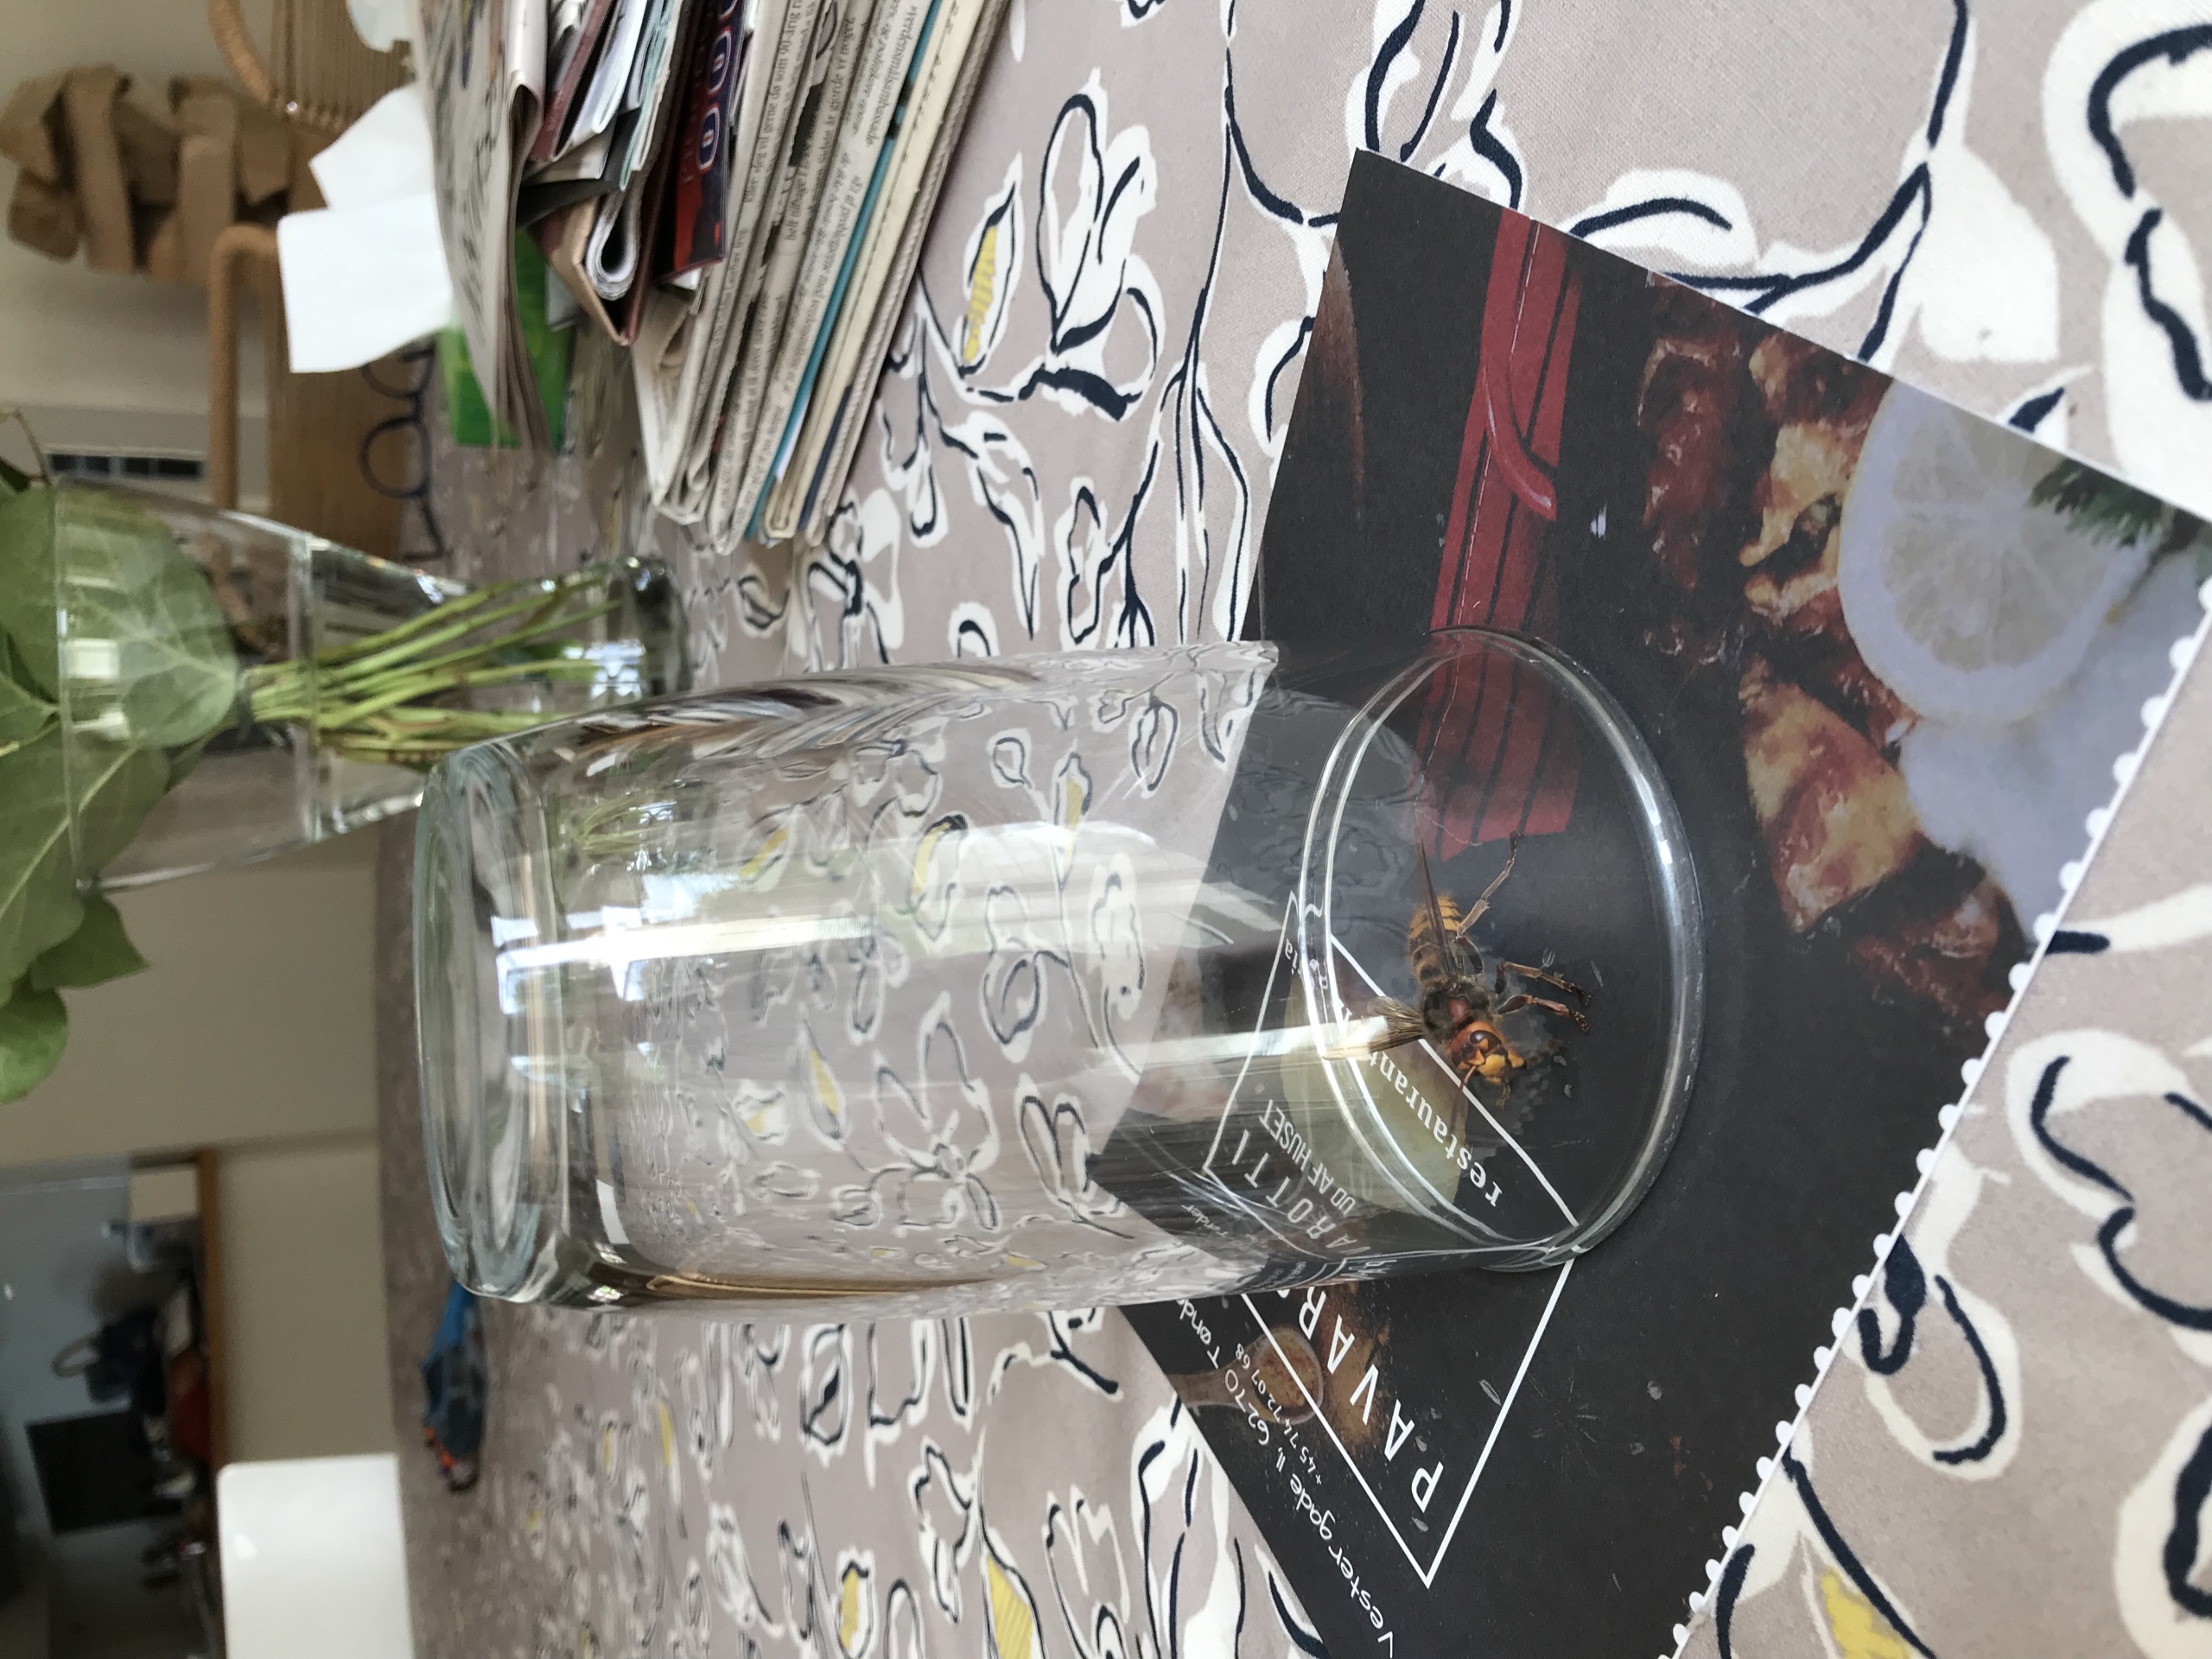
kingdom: Animalia
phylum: Arthropoda
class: Insecta
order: Hymenoptera
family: Vespidae
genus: Vespa
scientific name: Vespa crabro
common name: Stor gedehams
